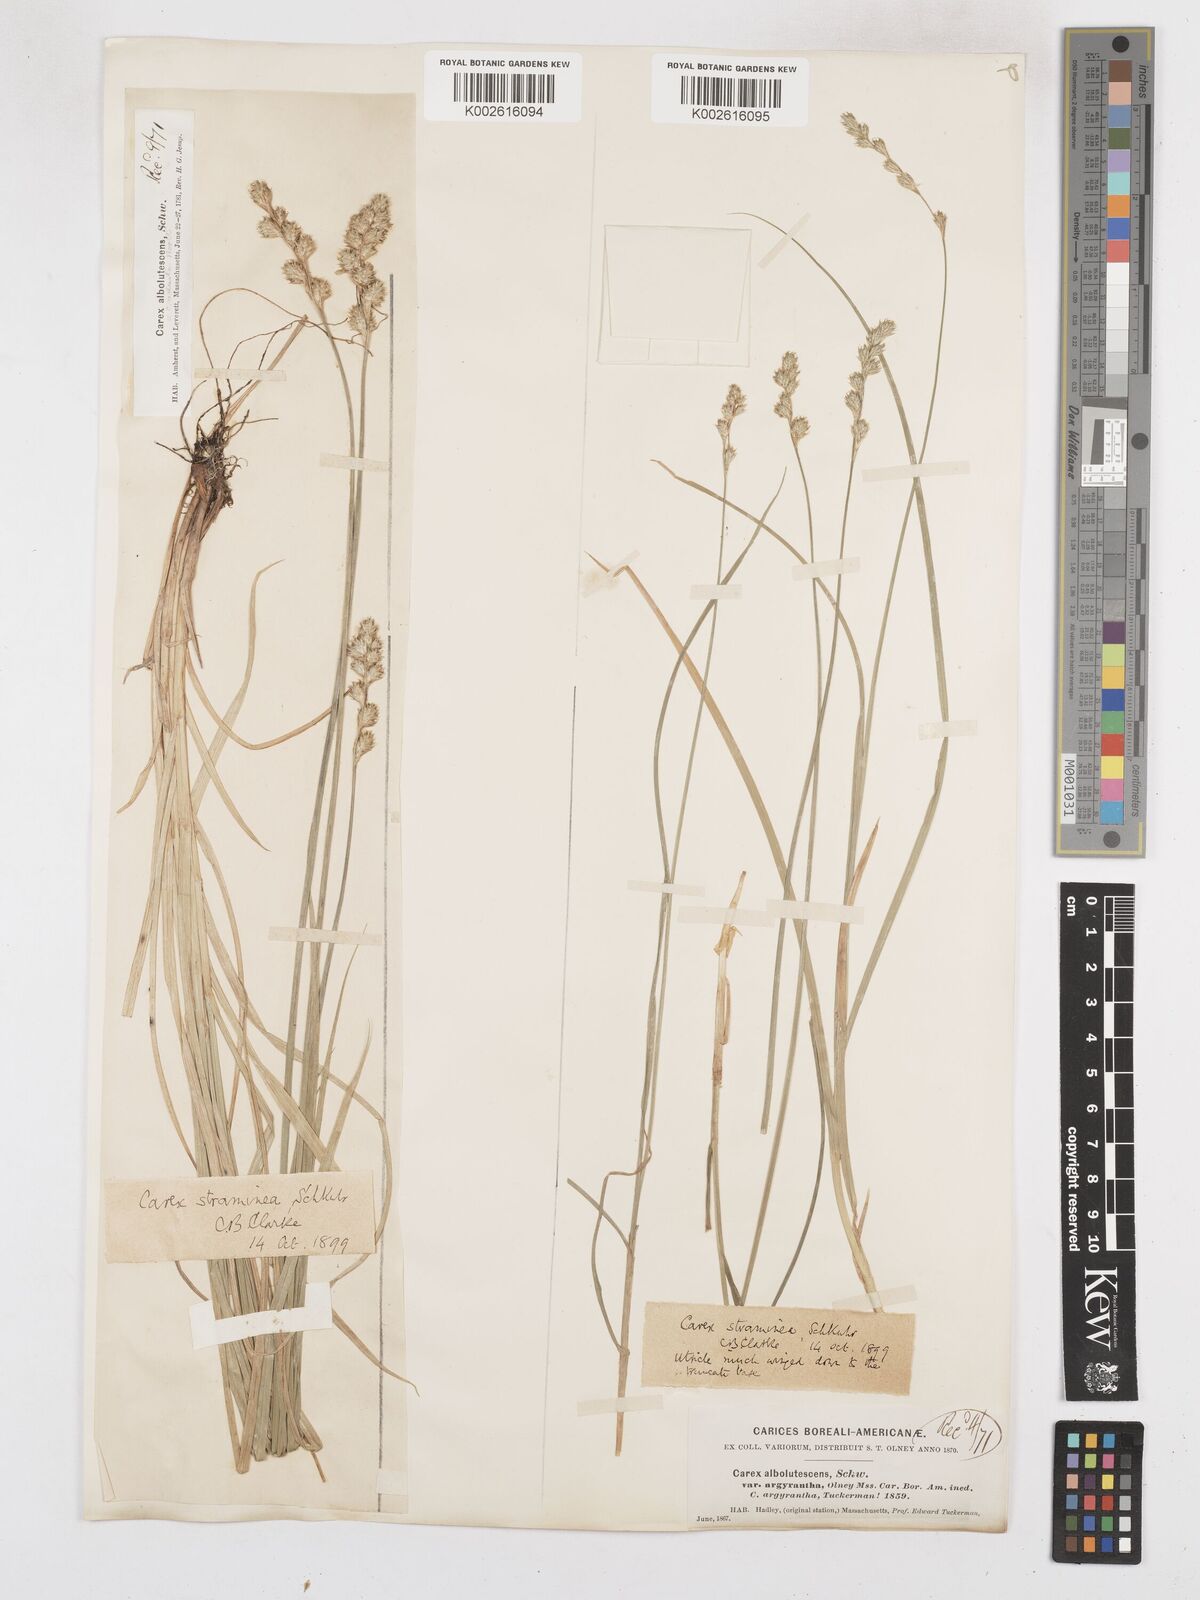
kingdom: Plantae
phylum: Tracheophyta
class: Liliopsida
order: Poales
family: Cyperaceae
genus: Carex
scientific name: Carex brevior
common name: Brevior sedge
